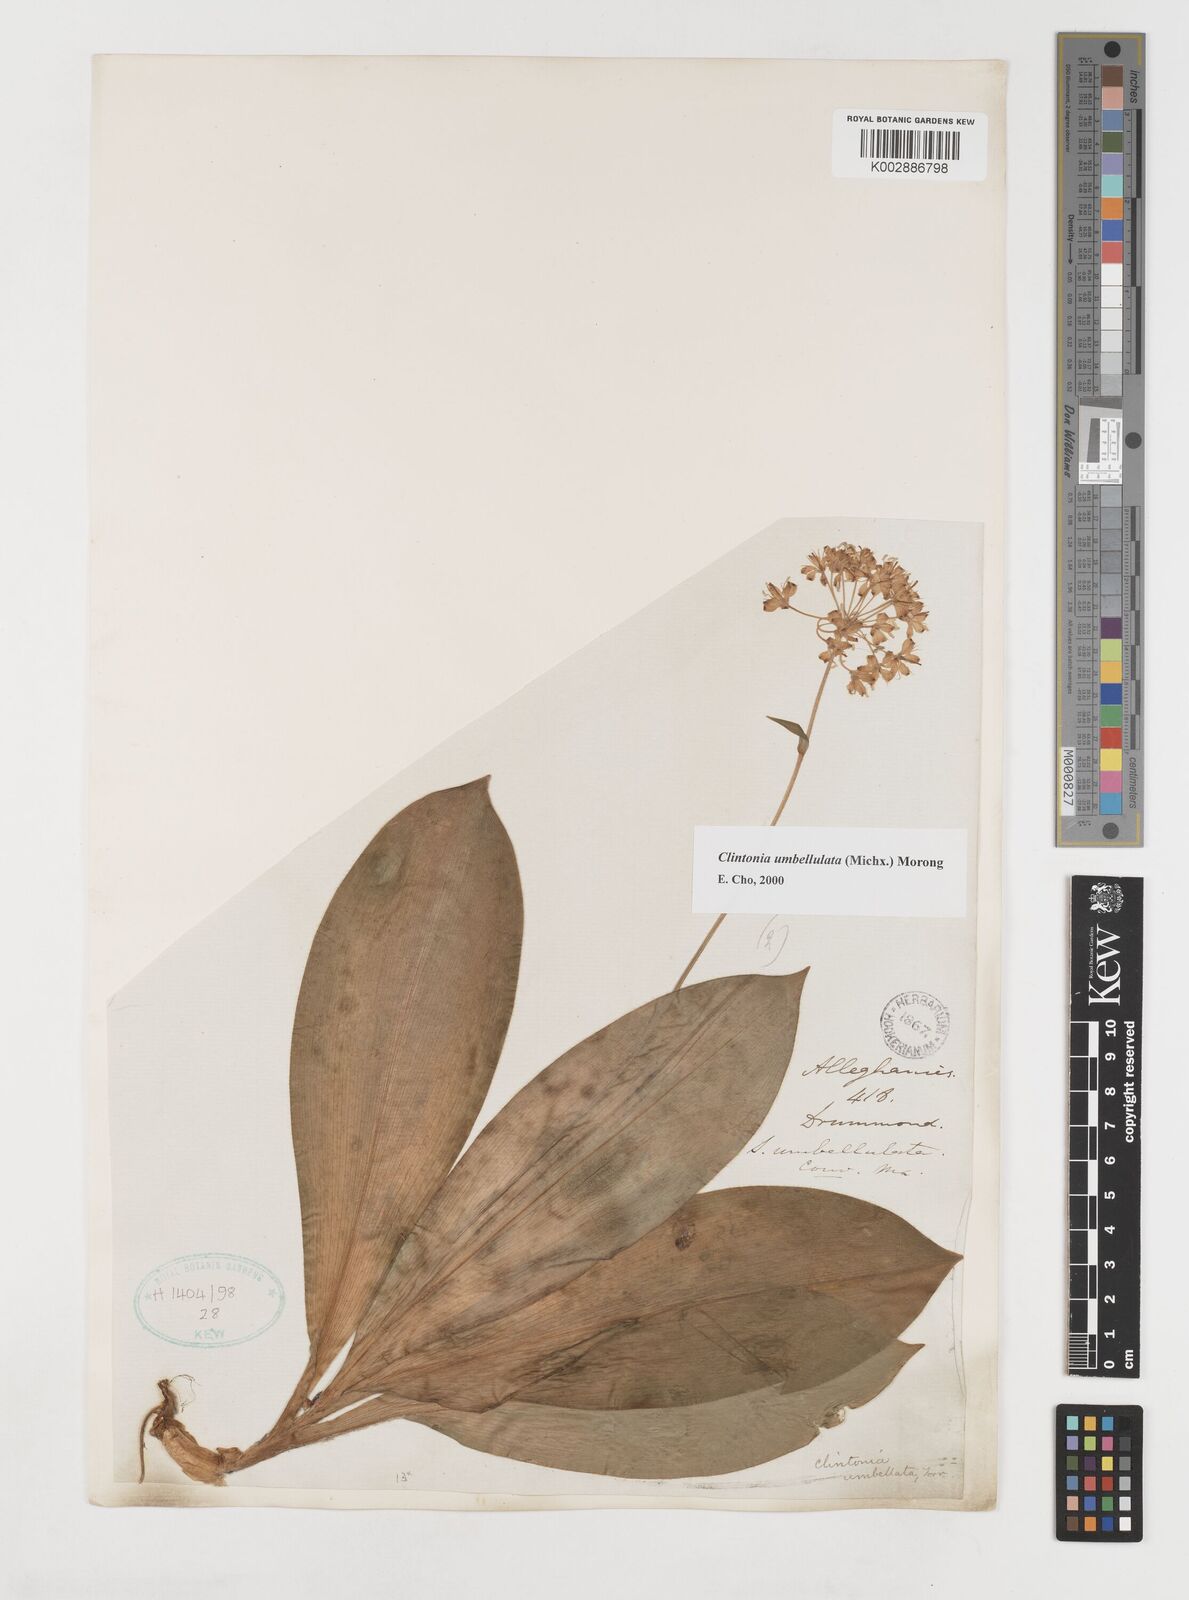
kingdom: Plantae
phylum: Tracheophyta
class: Liliopsida
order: Liliales
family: Liliaceae
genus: Clintonia
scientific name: Clintonia umbellulata
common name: Speckle wood-lily
